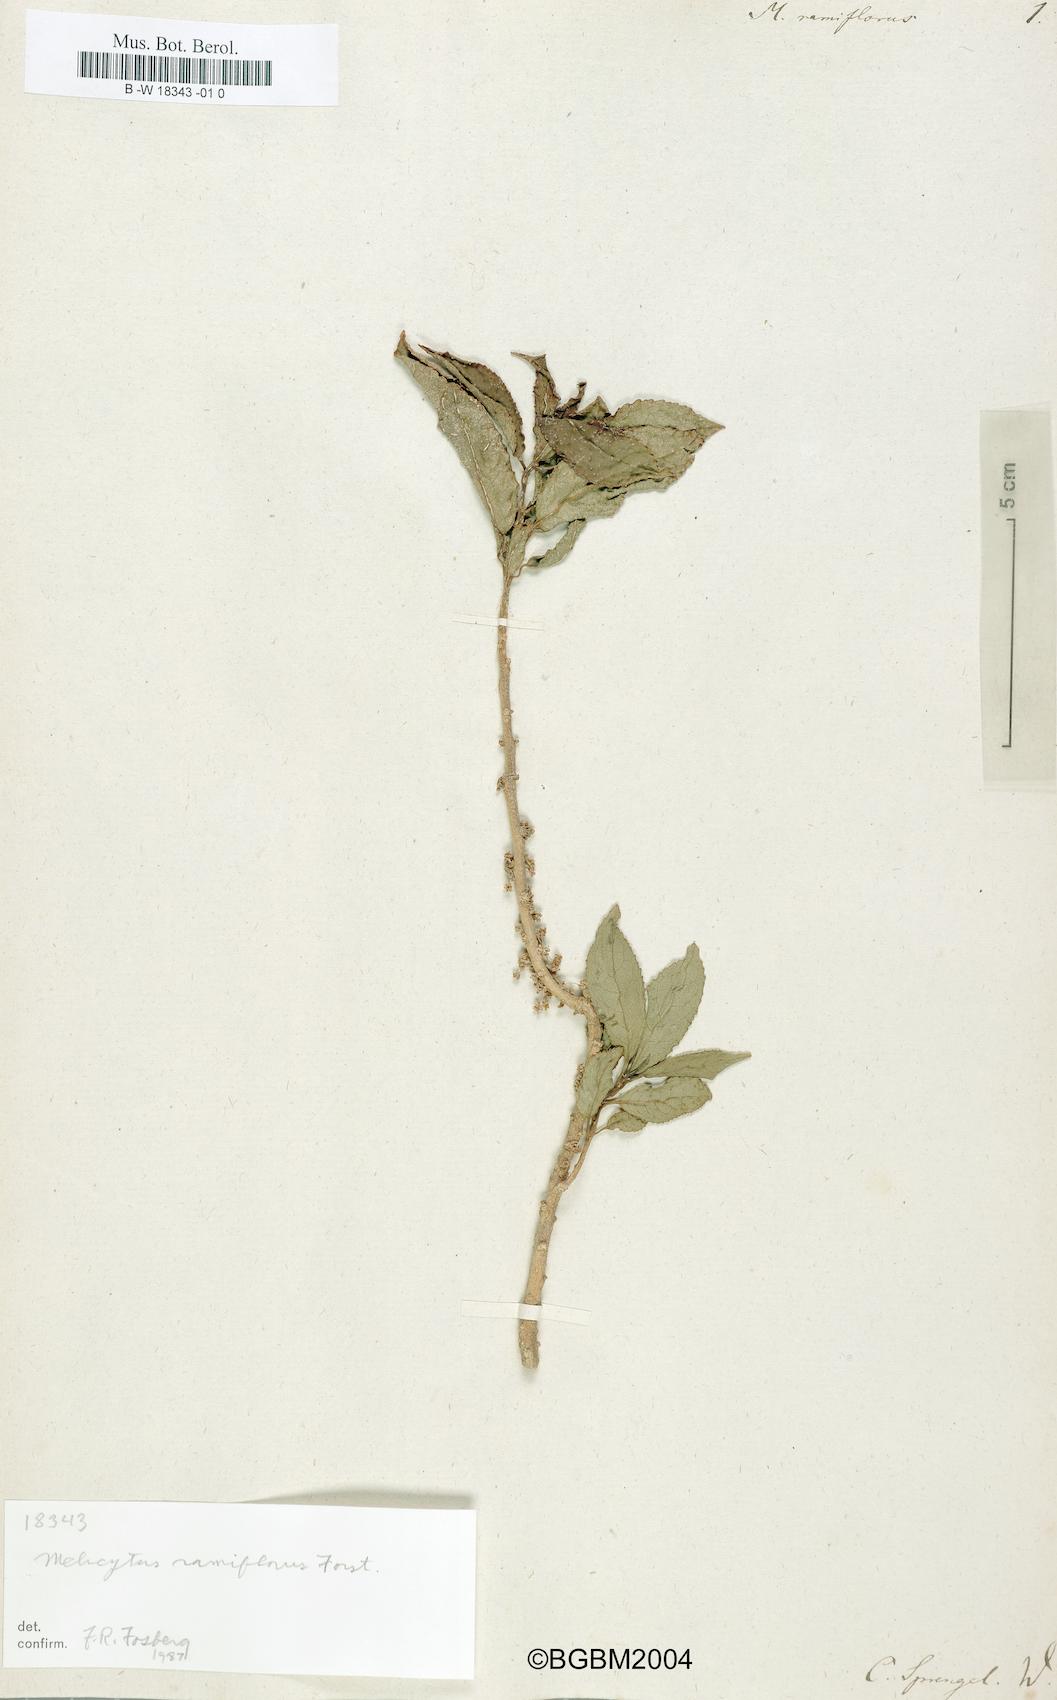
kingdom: Plantae
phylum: Tracheophyta
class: Magnoliopsida
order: Malpighiales
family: Violaceae
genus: Melicytus
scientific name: Melicytus ramiflorus
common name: Mahoe
